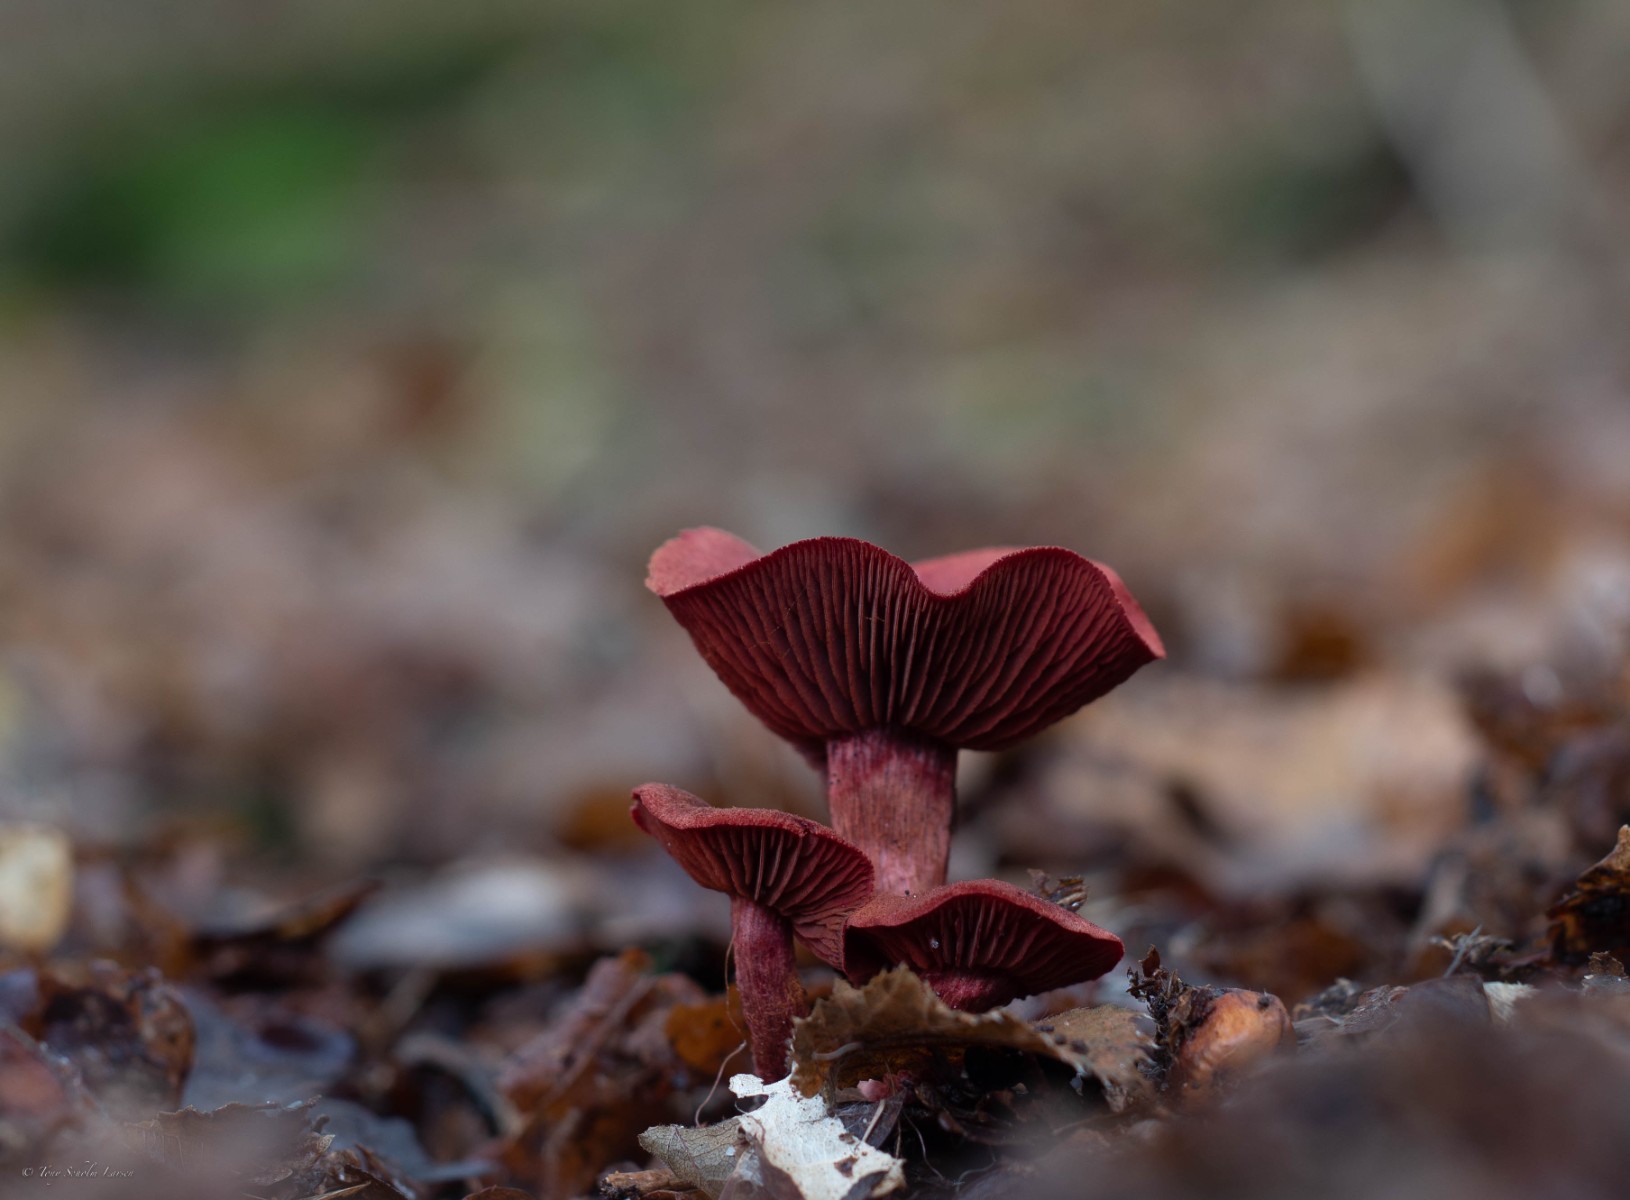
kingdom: Fungi
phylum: Basidiomycota
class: Agaricomycetes
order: Agaricales
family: Cortinariaceae
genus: Cortinarius
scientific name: Cortinarius
